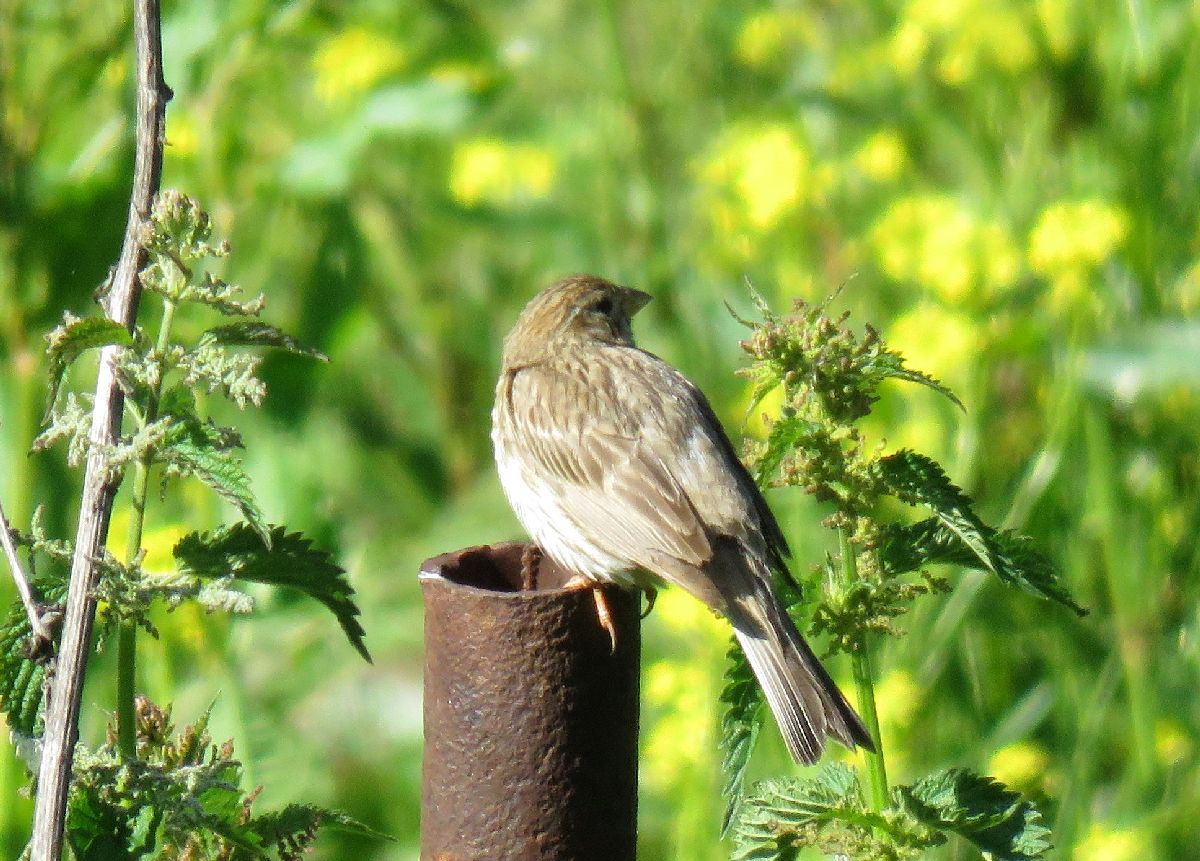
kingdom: Animalia
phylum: Chordata
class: Aves
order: Passeriformes
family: Emberizidae
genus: Emberiza
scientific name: Emberiza calandra
